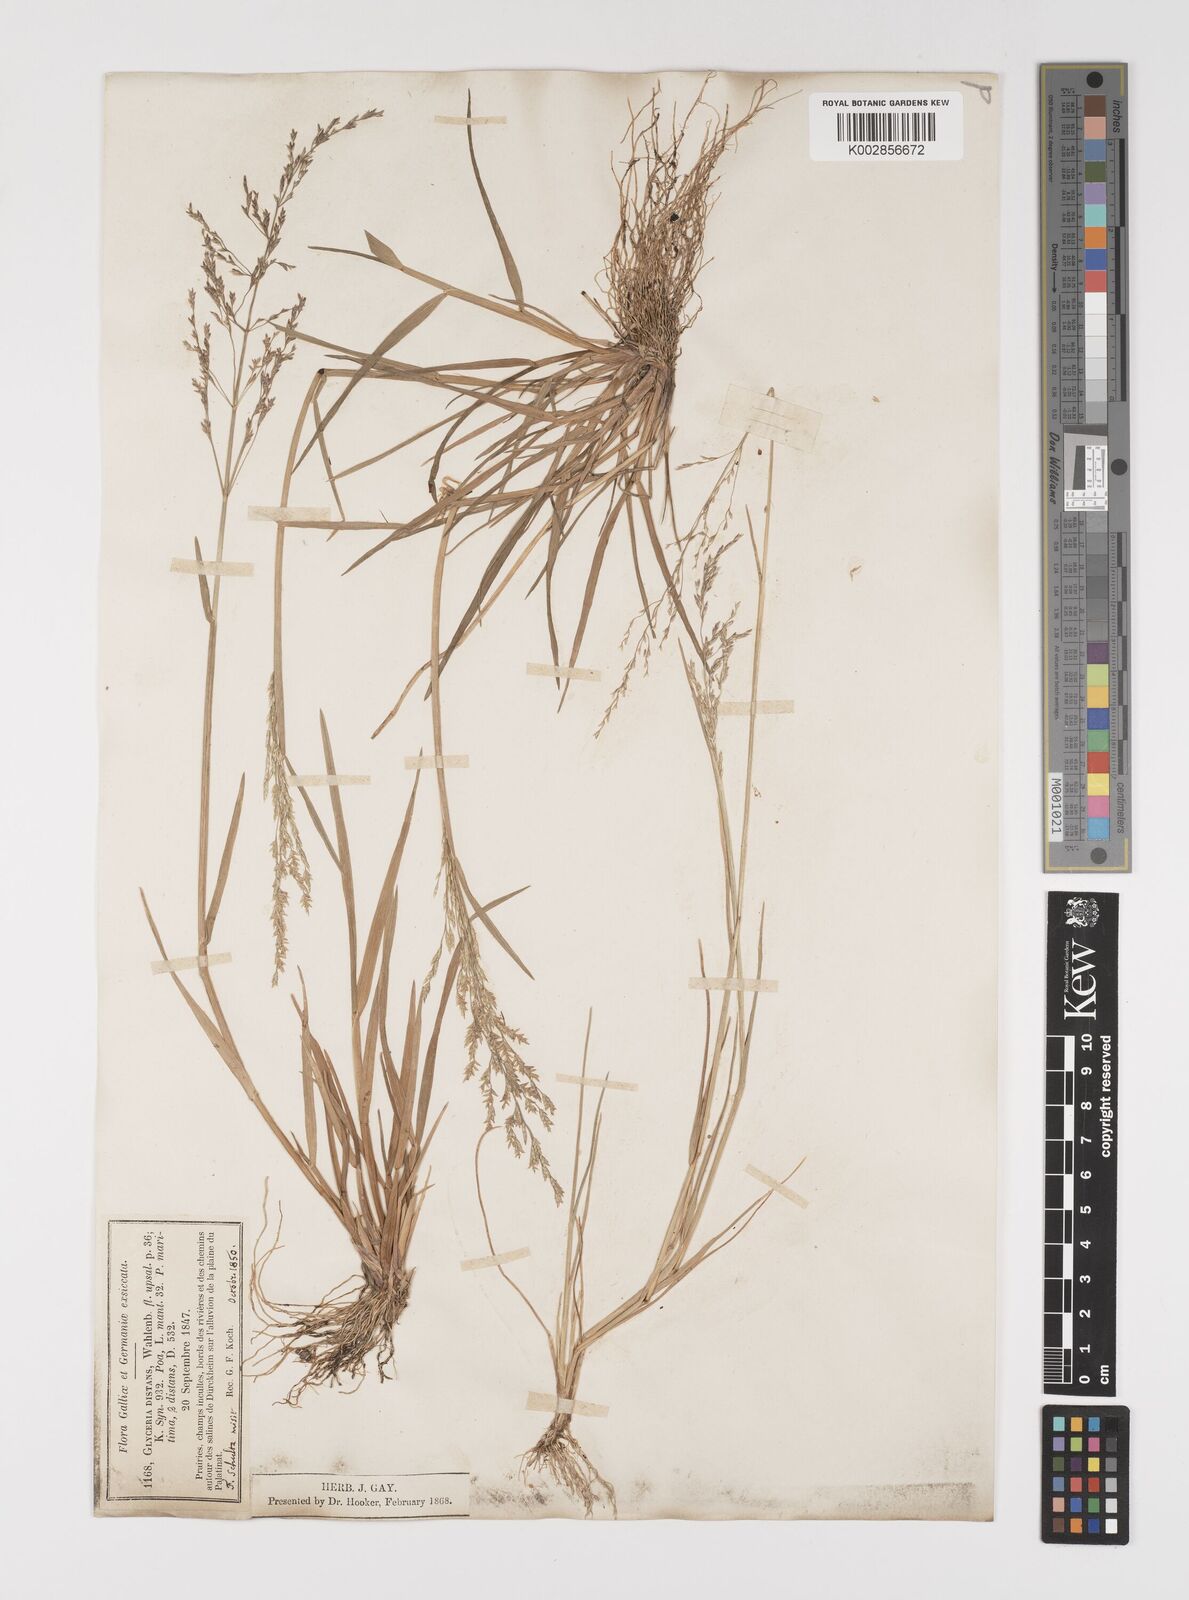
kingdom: Plantae
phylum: Tracheophyta
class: Liliopsida
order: Poales
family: Poaceae
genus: Puccinellia
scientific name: Puccinellia
